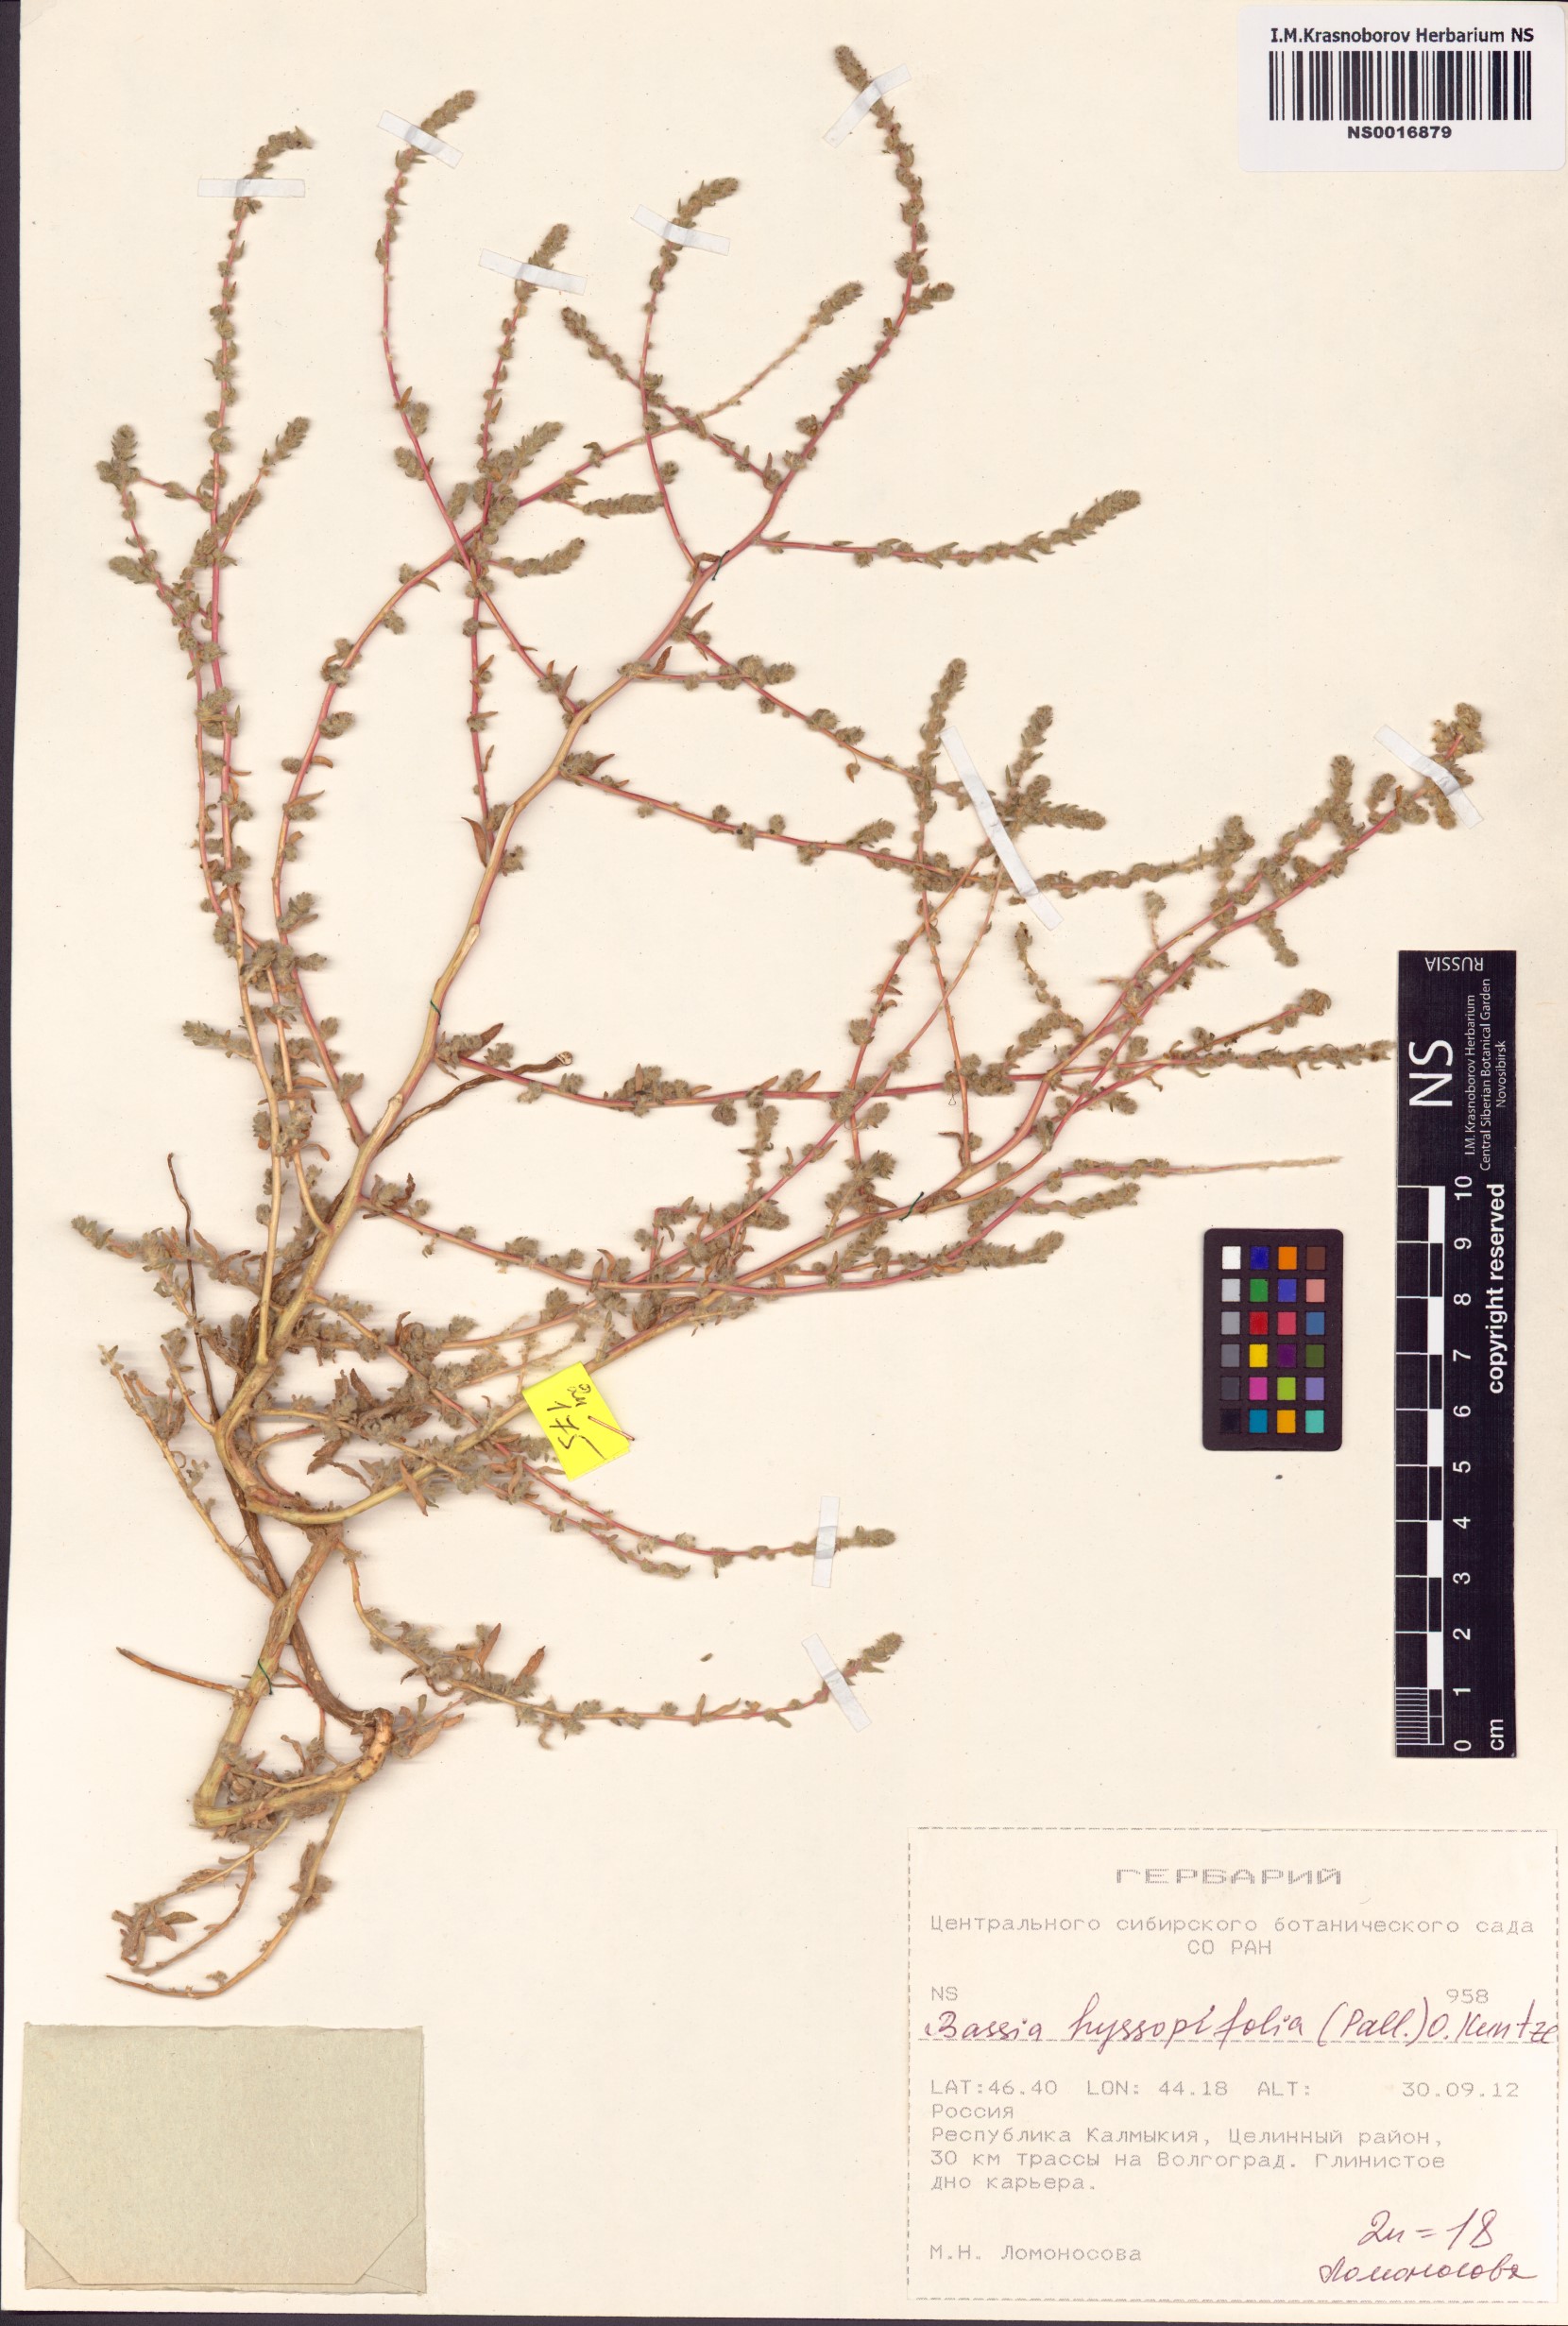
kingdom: Plantae
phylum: Tracheophyta
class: Magnoliopsida
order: Caryophyllales
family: Amaranthaceae
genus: Bassia
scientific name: Bassia hyssopifolia
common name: Fivehorn smotherweed
